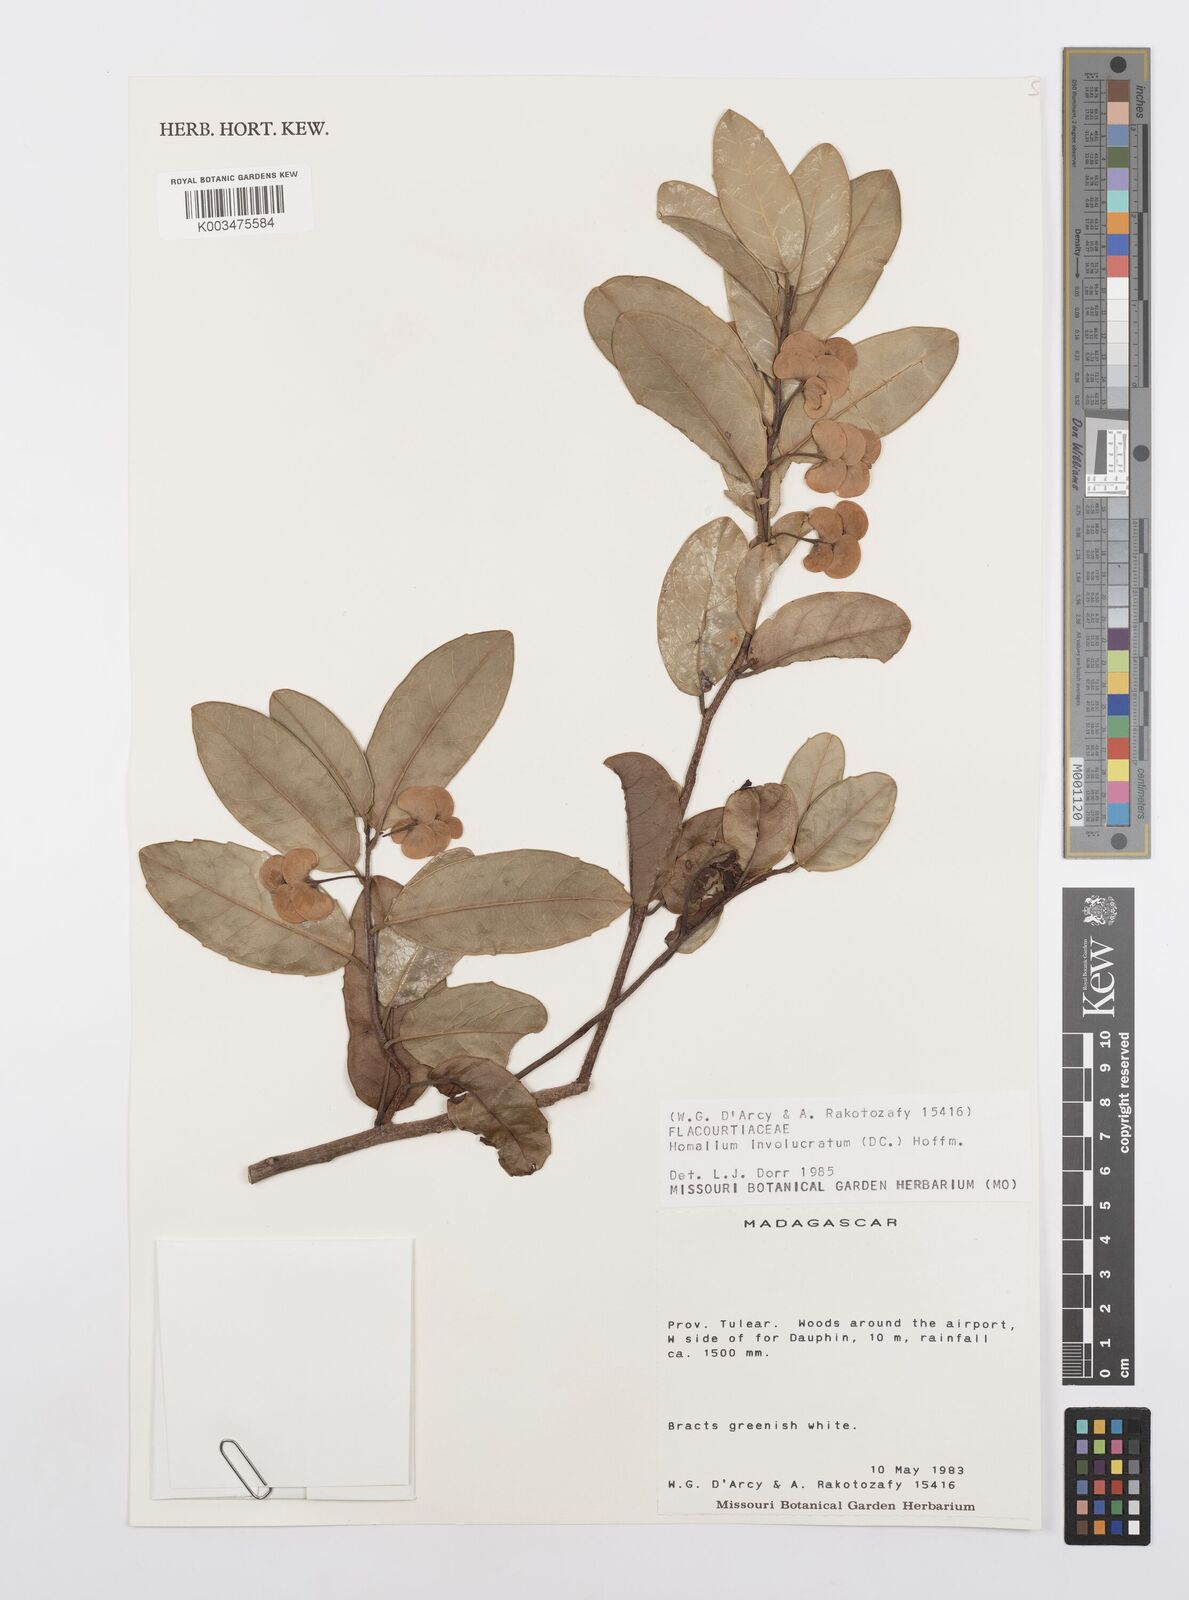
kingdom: Plantae
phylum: Tracheophyta
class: Magnoliopsida
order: Malpighiales
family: Salicaceae
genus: Homalium
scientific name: Homalium involucratum
